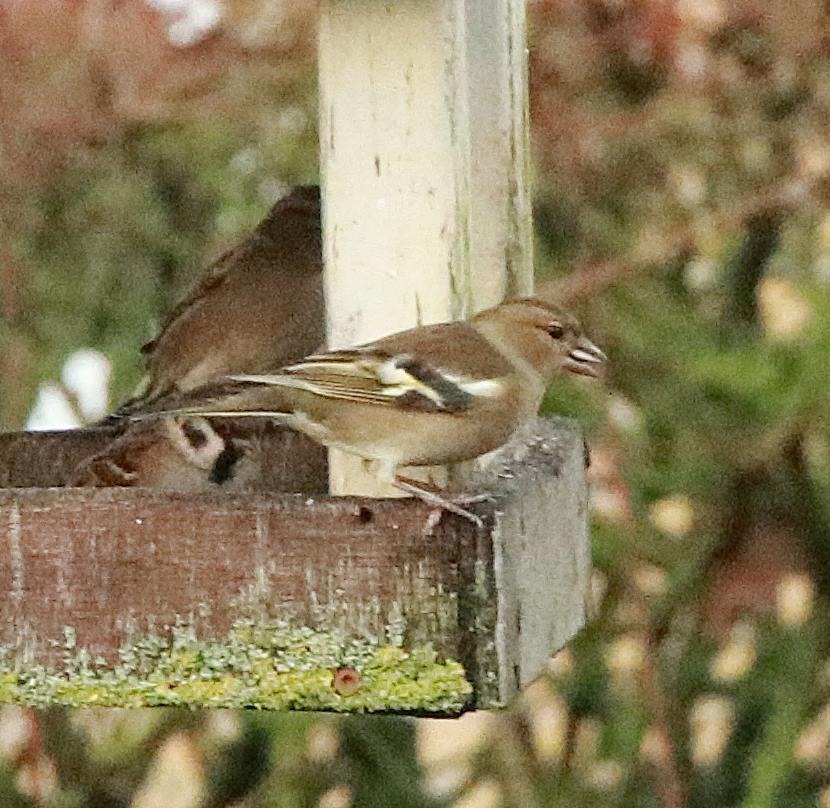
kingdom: Animalia
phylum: Chordata
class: Aves
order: Passeriformes
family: Fringillidae
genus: Fringilla
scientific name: Fringilla coelebs
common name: Bogfinke
